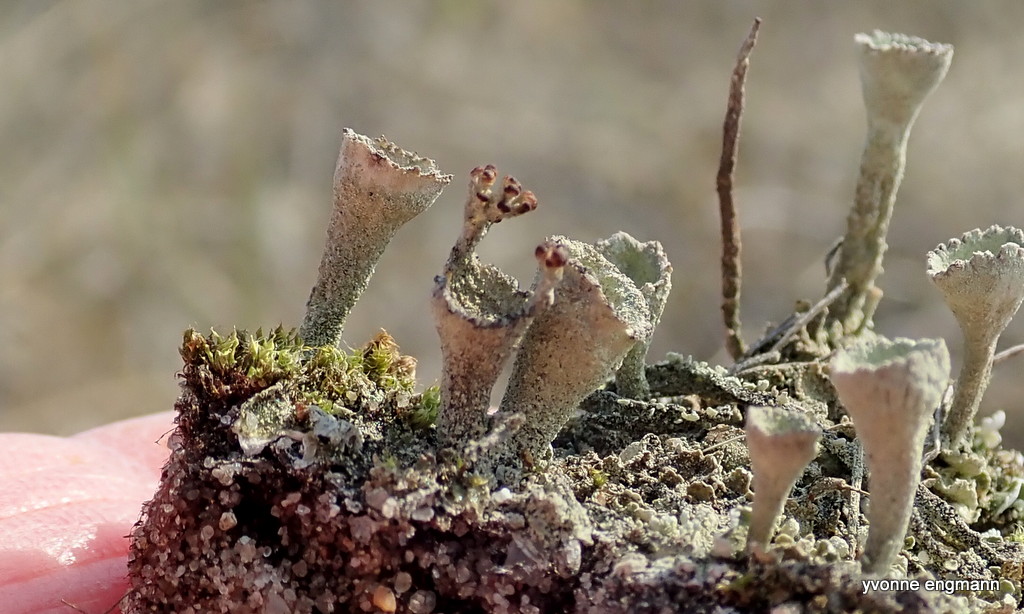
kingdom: Fungi
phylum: Ascomycota
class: Lecanoromycetes
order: Lecanorales
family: Cladoniaceae
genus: Cladonia
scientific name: Cladonia
